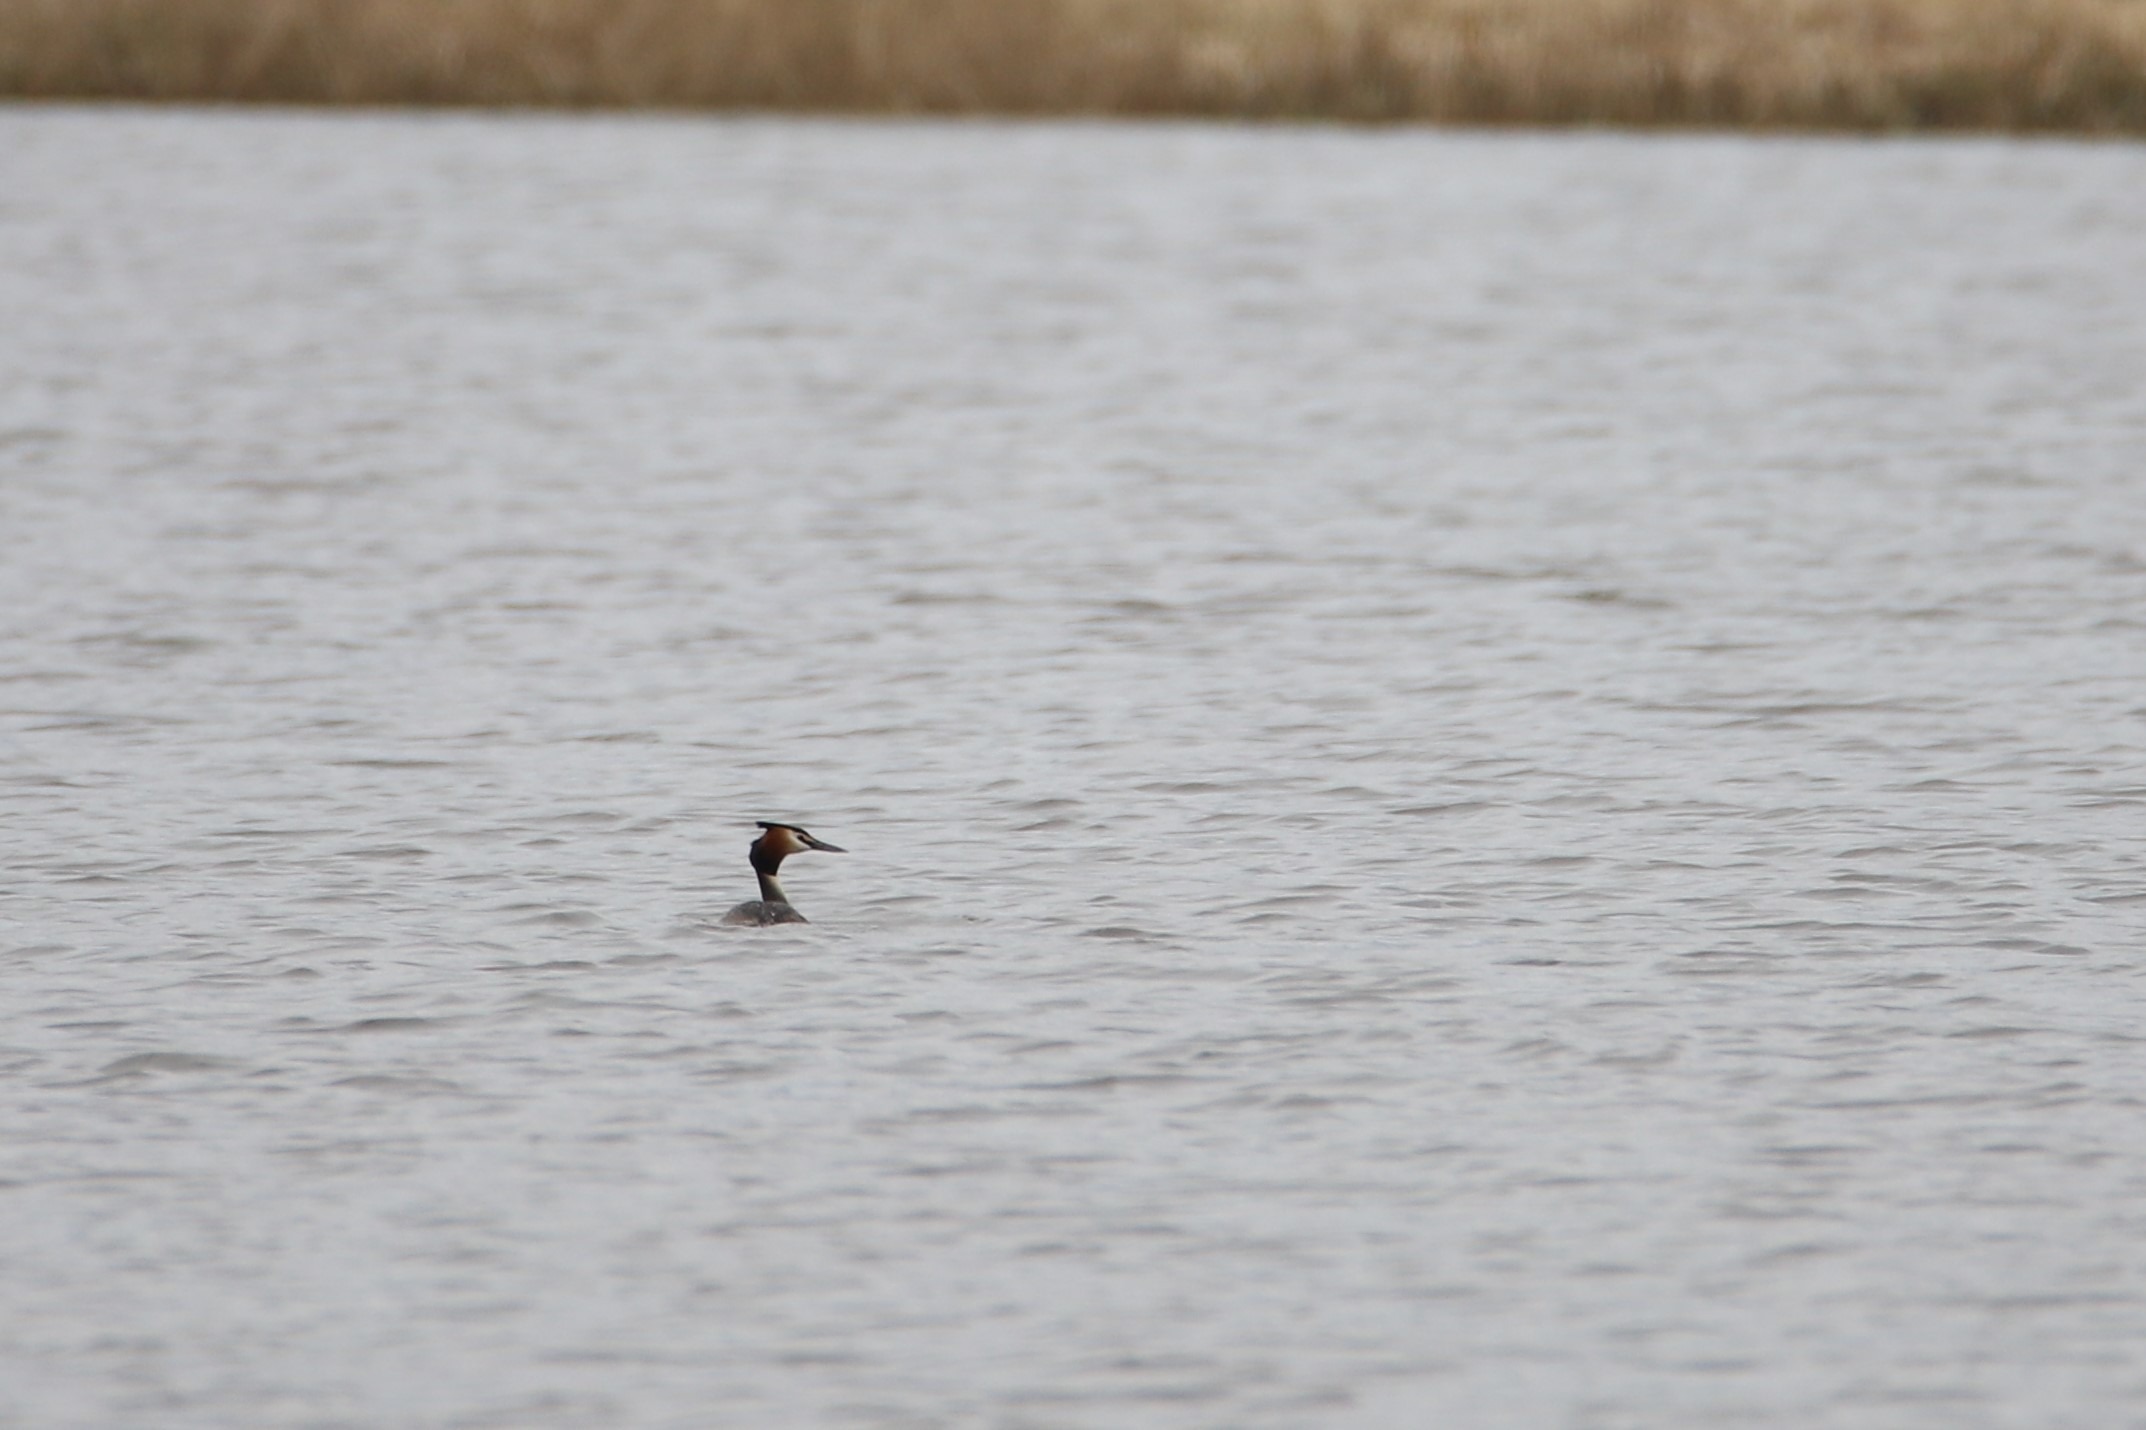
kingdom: Animalia
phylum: Chordata
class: Aves
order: Podicipediformes
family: Podicipedidae
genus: Podiceps
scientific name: Podiceps cristatus
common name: Toppet lappedykker
